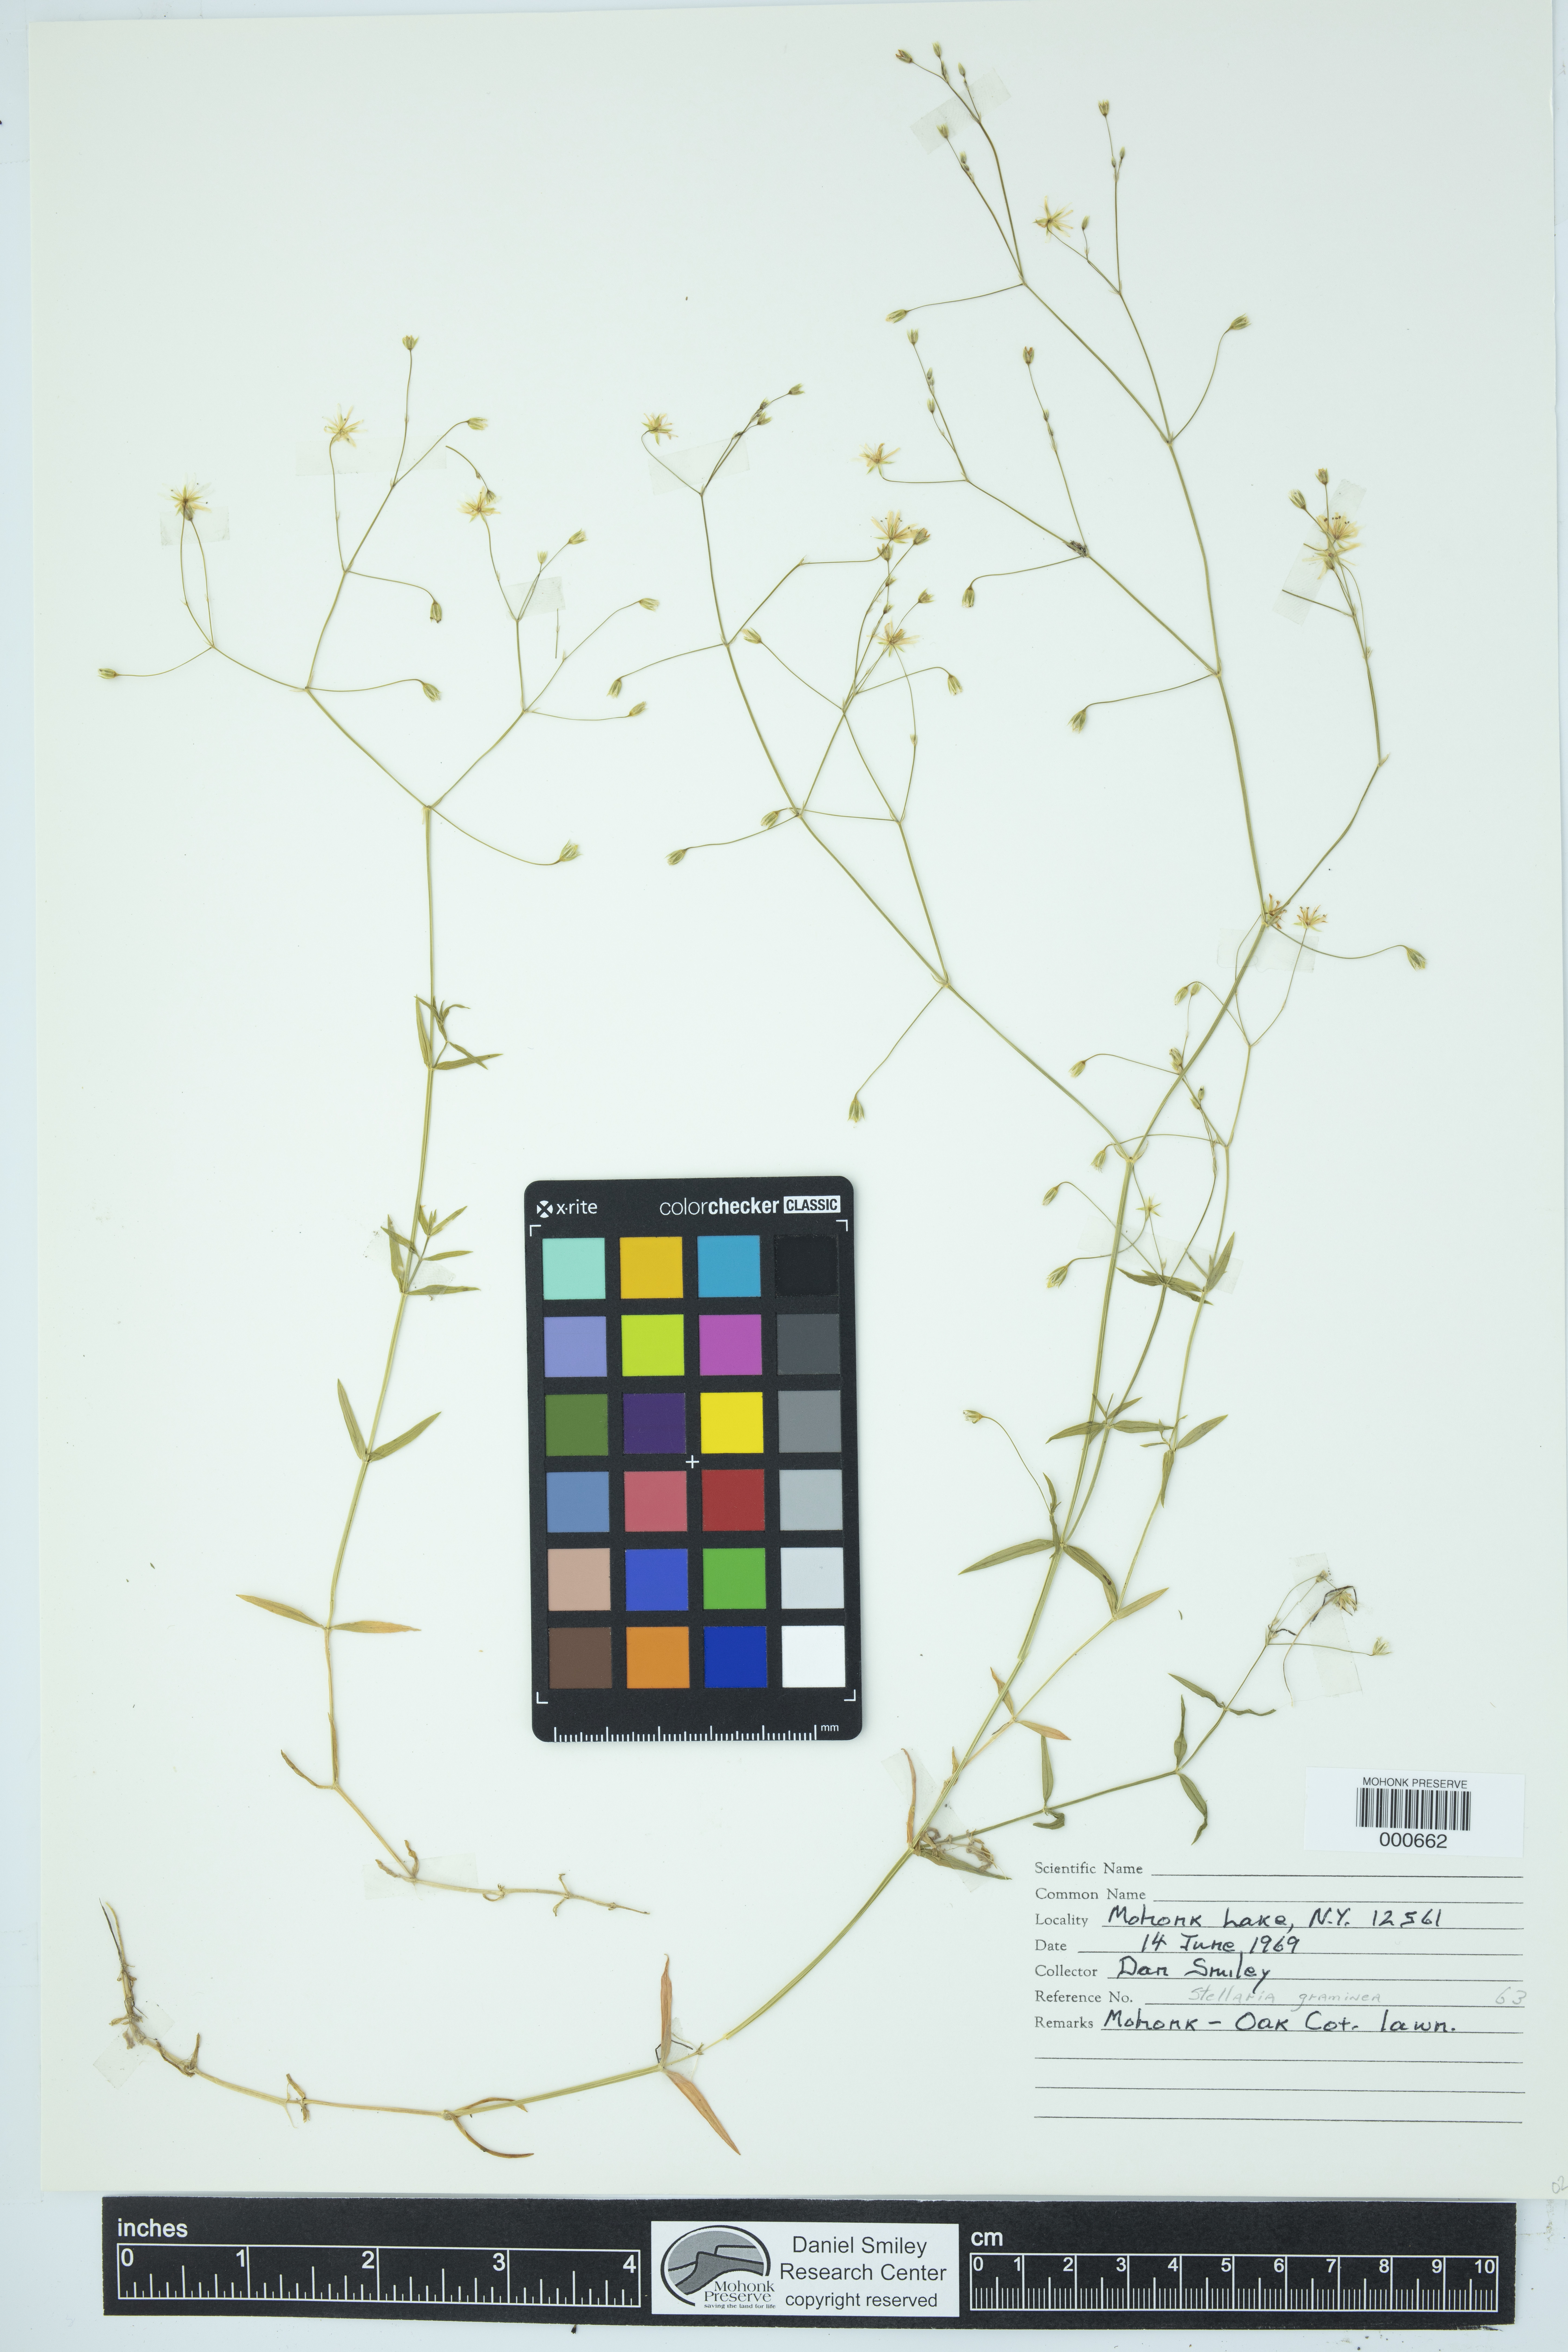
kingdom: Plantae
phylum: Tracheophyta
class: Magnoliopsida
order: Caryophyllales
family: Caryophyllaceae
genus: Stellaria
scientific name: Stellaria graminea
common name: Grass-like starwort
